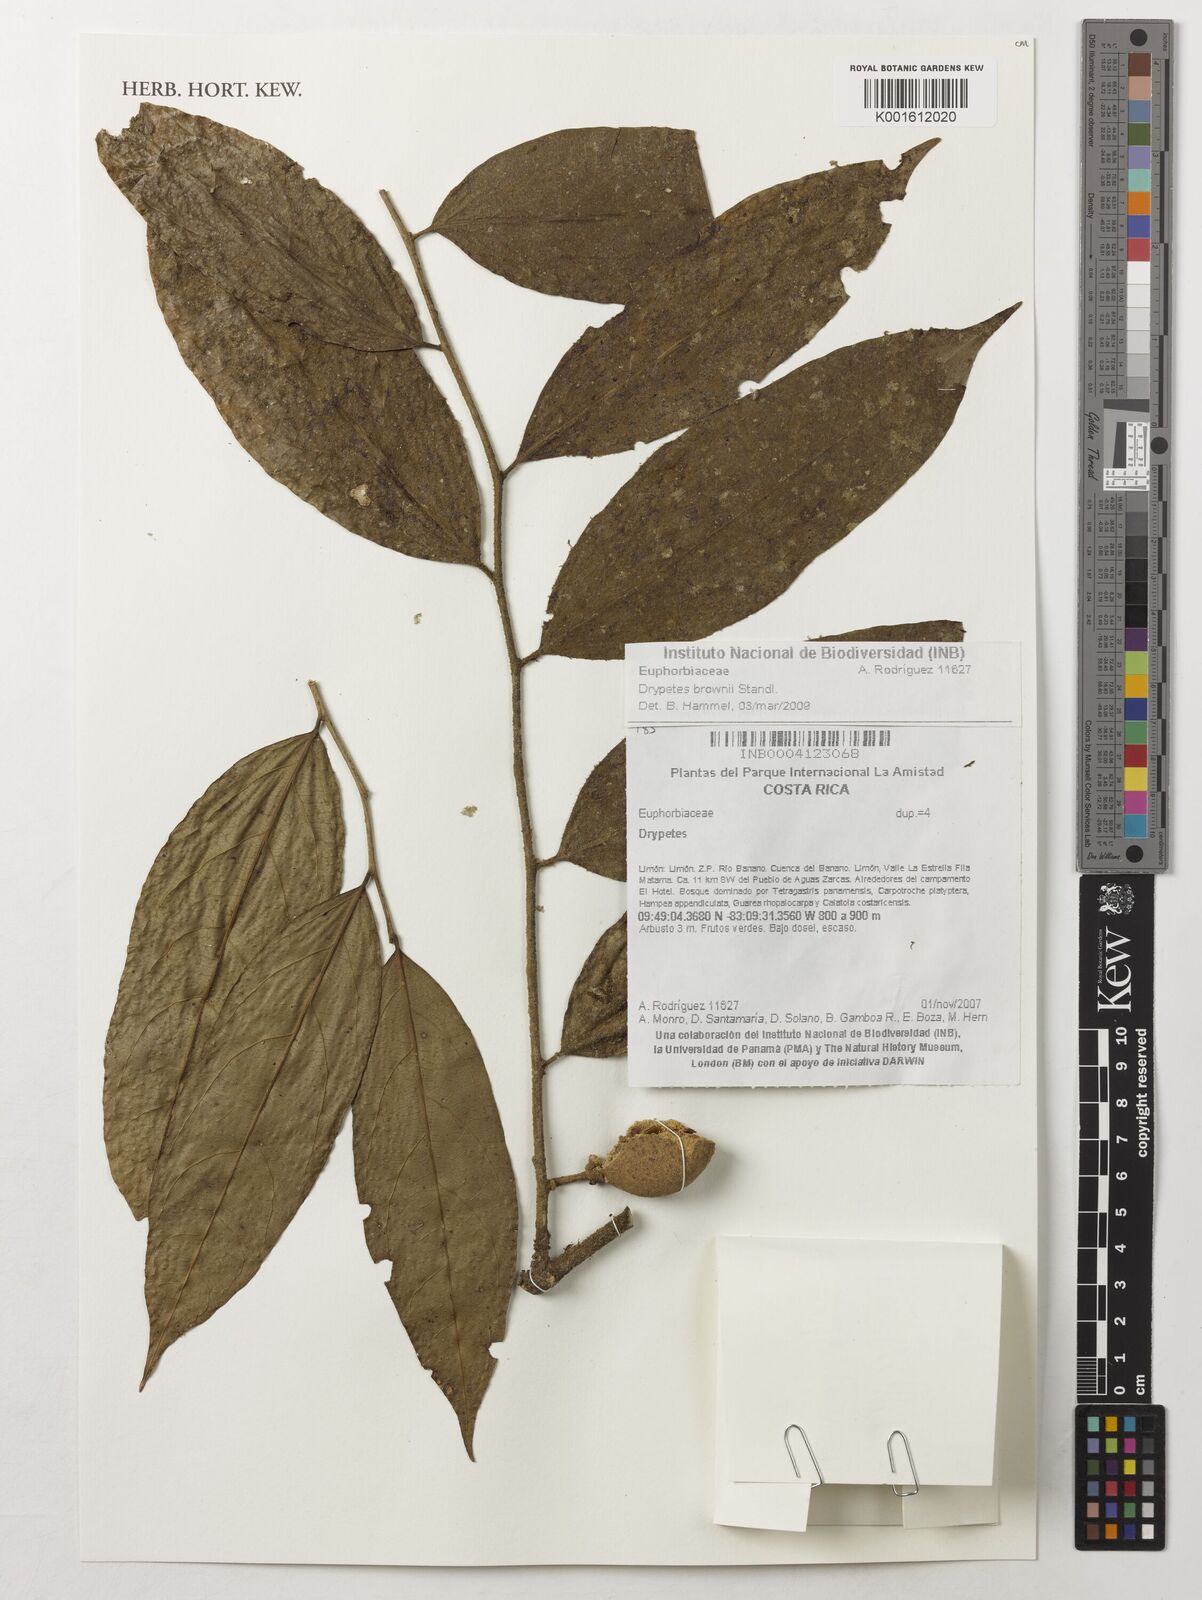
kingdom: Plantae
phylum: Tracheophyta
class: Magnoliopsida
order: Malpighiales
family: Putranjivaceae
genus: Drypetes
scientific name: Drypetes brownii
